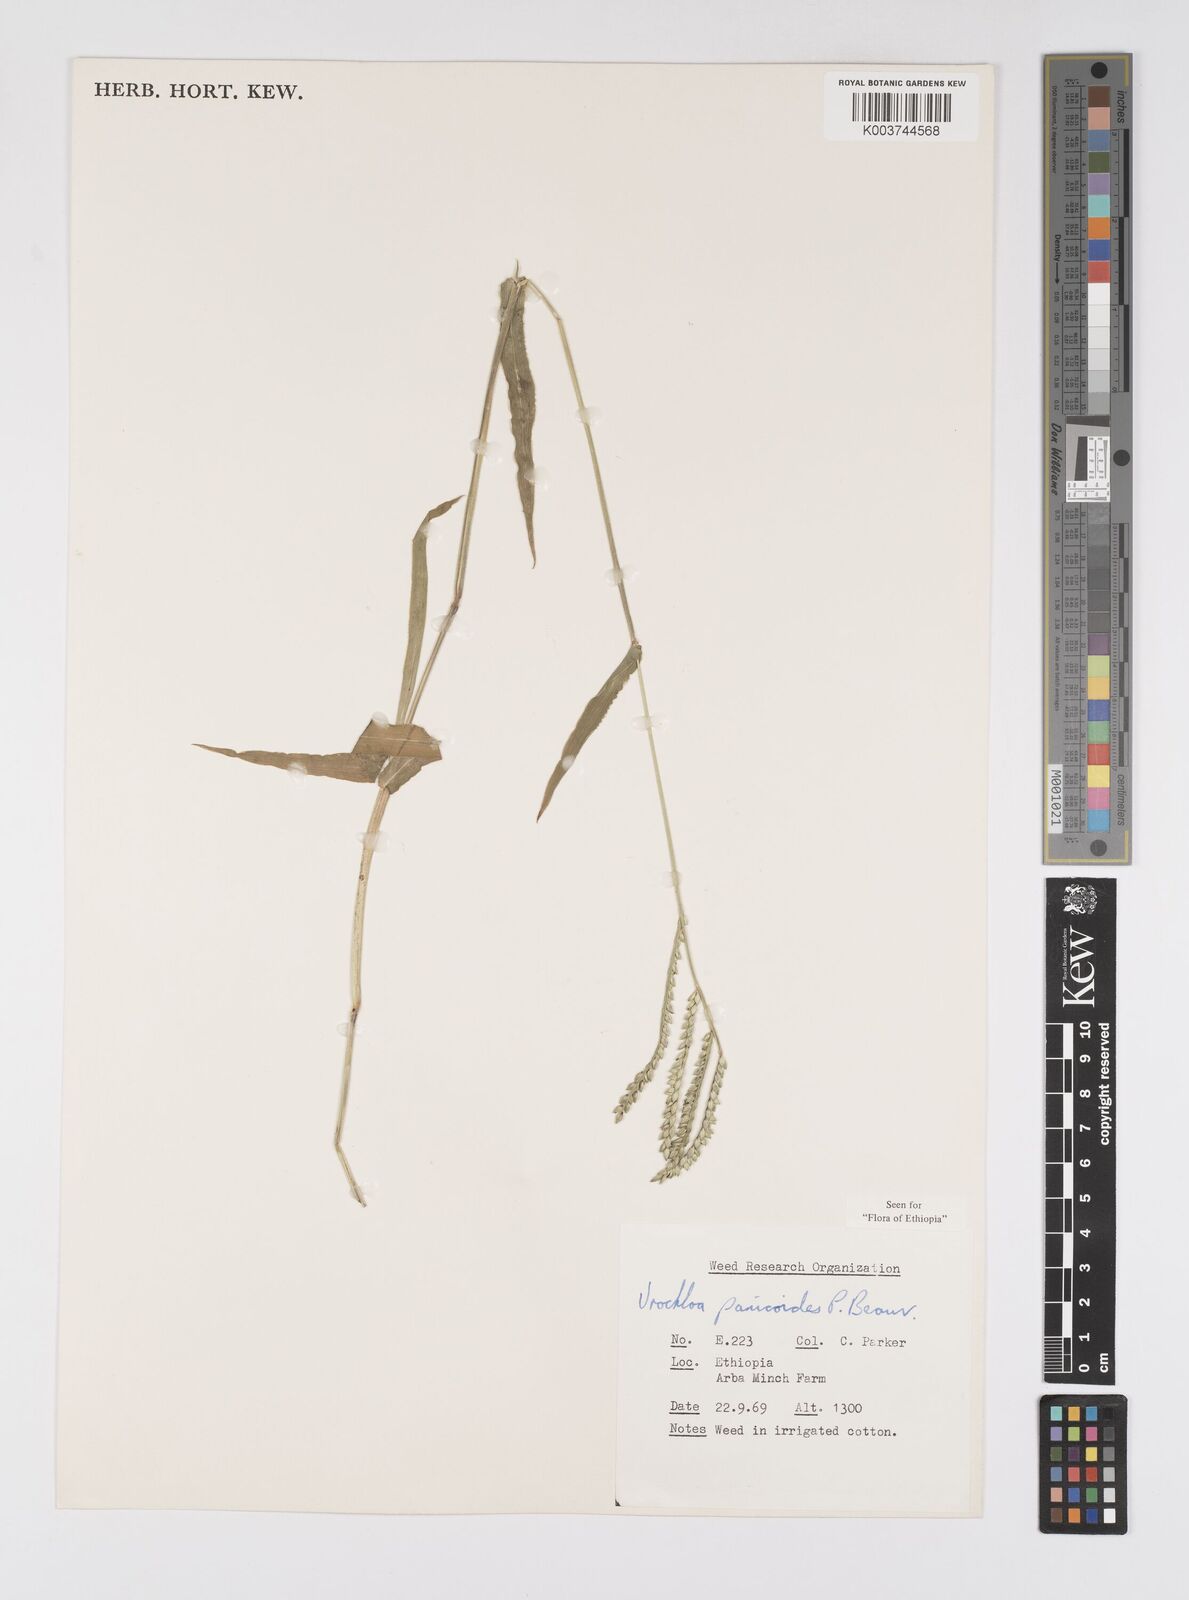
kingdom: Plantae
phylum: Tracheophyta
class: Liliopsida
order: Poales
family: Poaceae
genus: Urochloa
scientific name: Urochloa panicoides
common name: Sharp-flowered signal-grass
